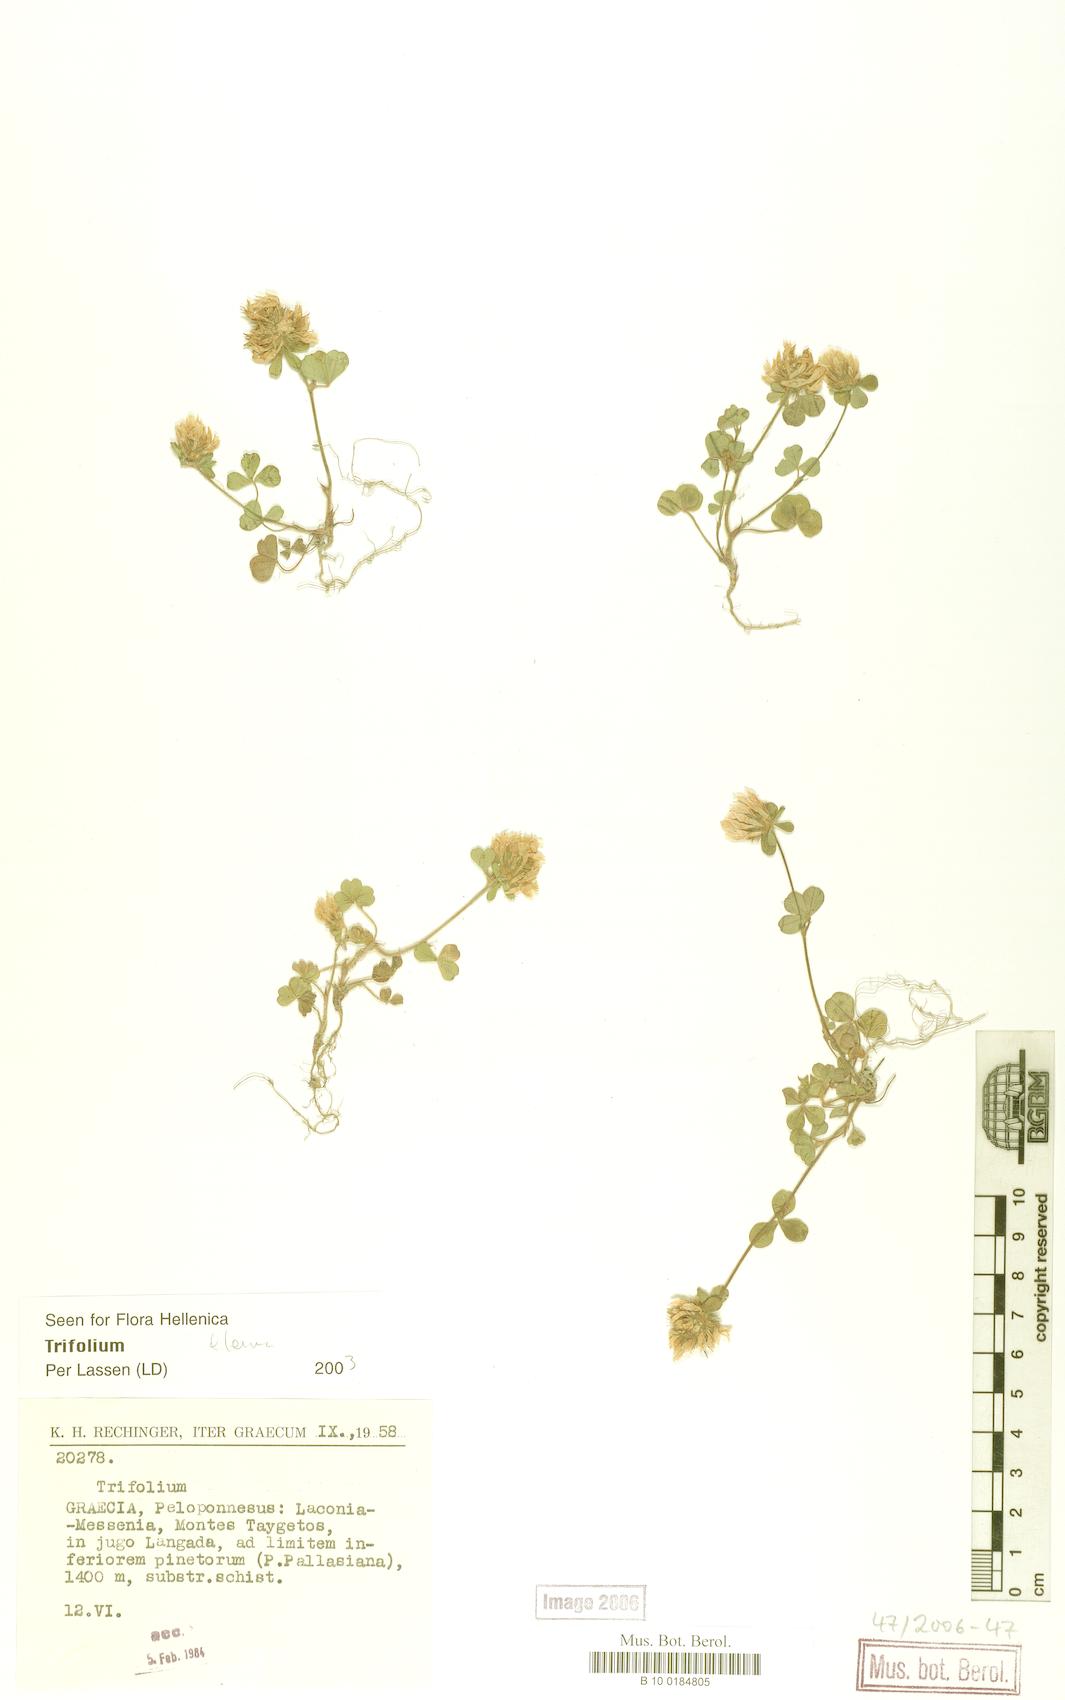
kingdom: Plantae
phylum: Tracheophyta
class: Magnoliopsida
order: Fabales
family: Fabaceae
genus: Trifolium
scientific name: Trifolium
